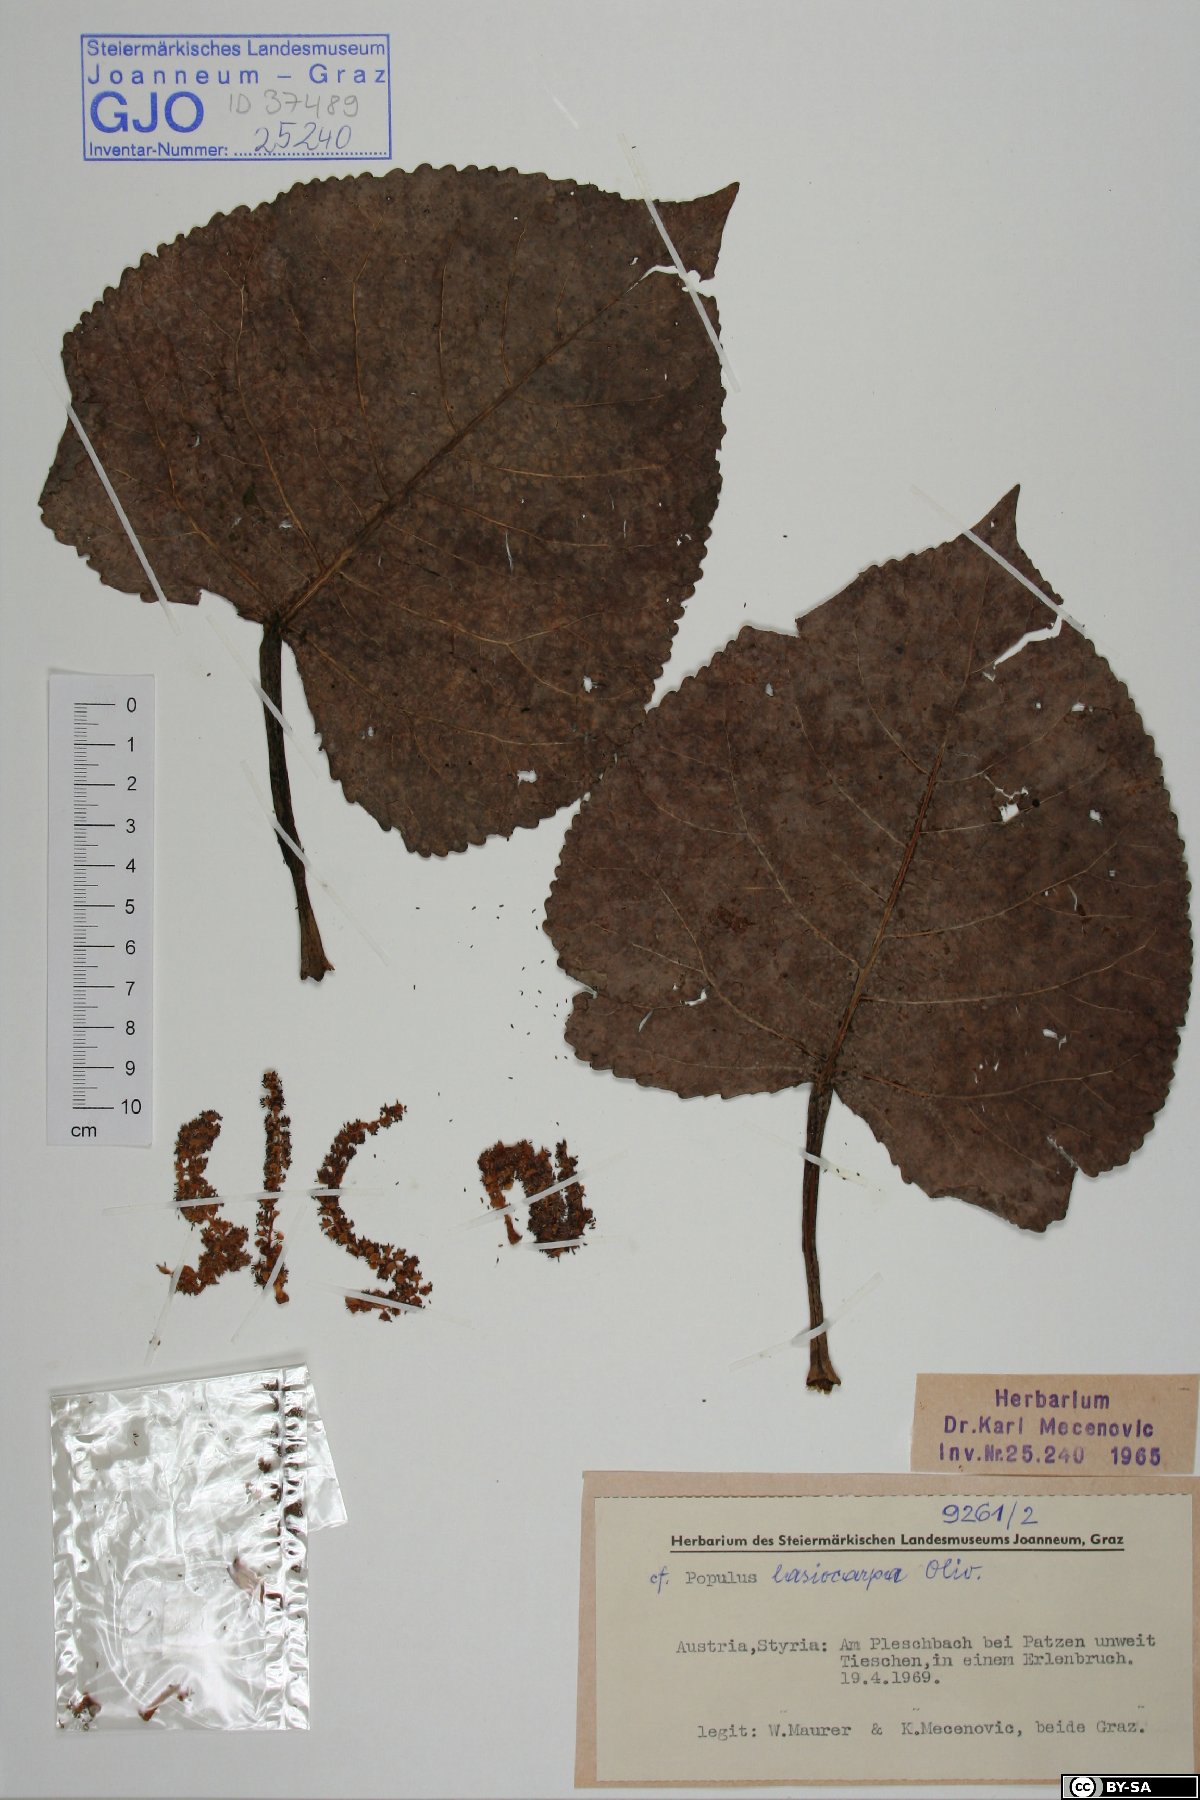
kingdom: Plantae
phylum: Tracheophyta
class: Magnoliopsida
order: Malpighiales
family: Salicaceae
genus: Populus
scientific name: Populus lasiocarpa
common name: Chinese necklace poplar
